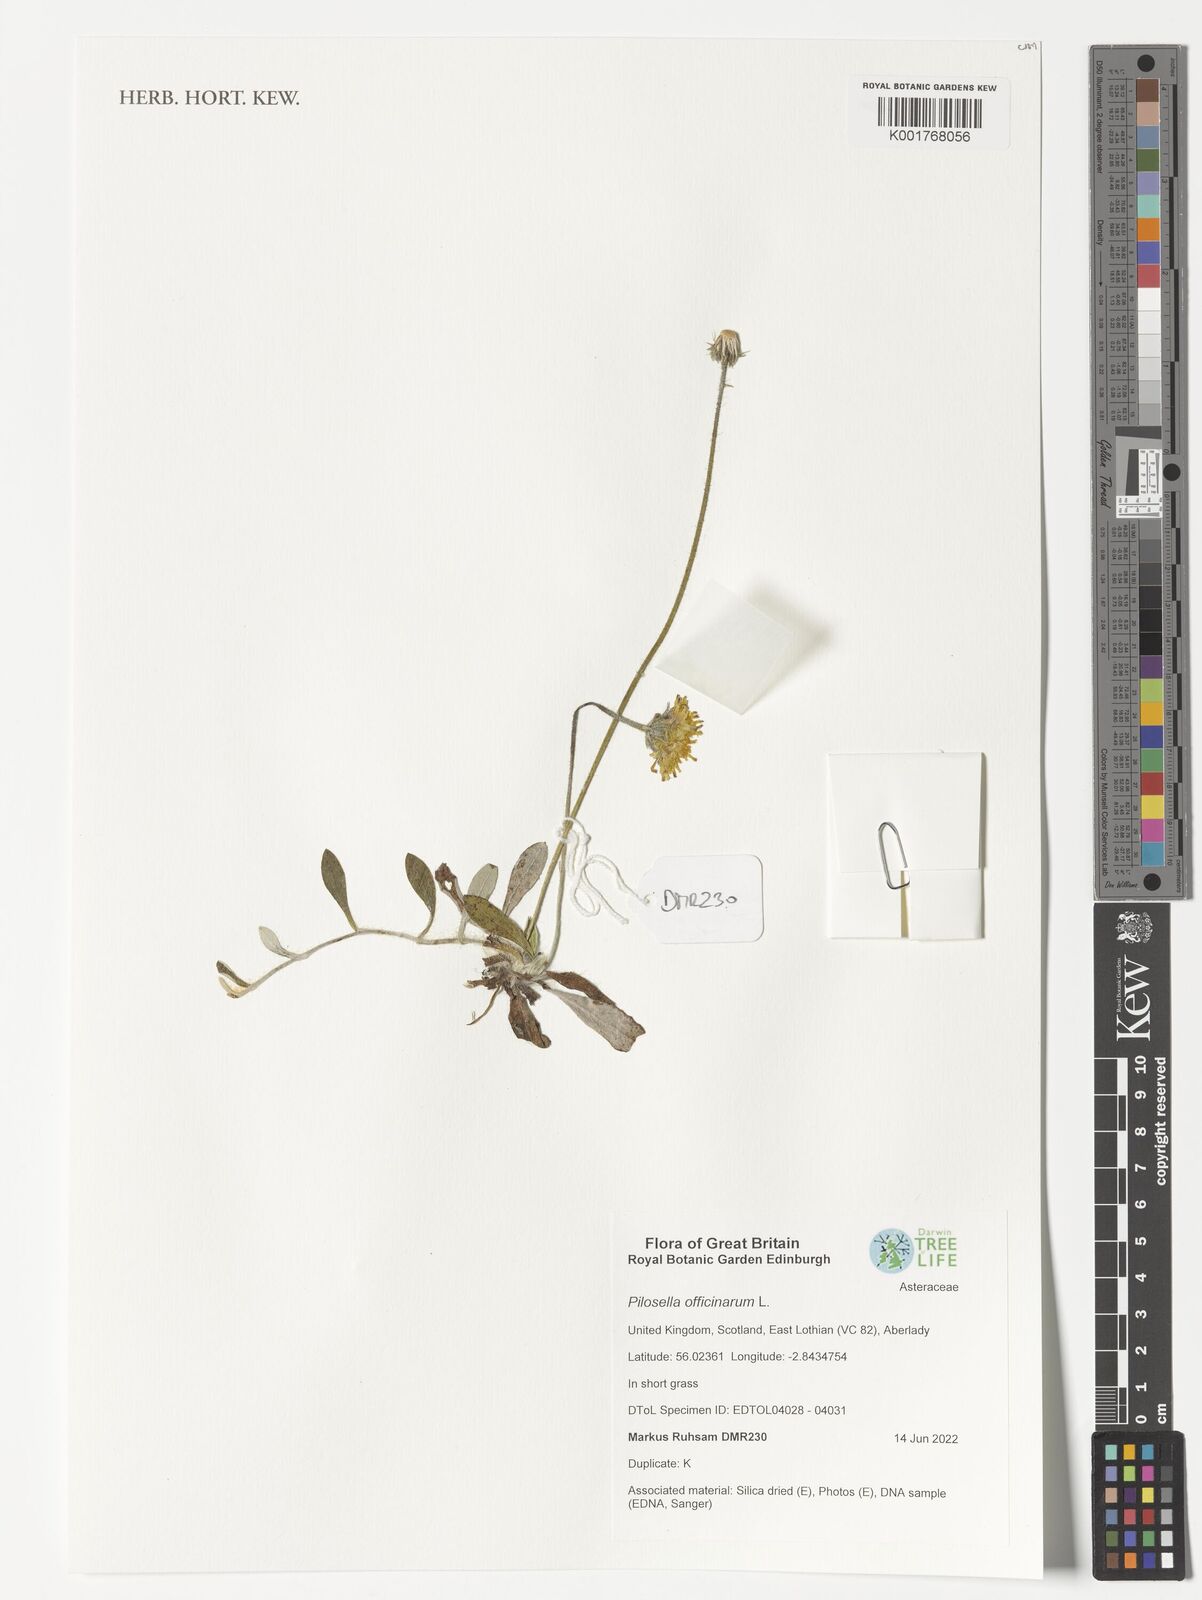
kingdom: Plantae
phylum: Tracheophyta
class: Magnoliopsida
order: Asterales
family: Asteraceae
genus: Pilosella
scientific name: Pilosella officinarum
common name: Mouse-ear hawkweed
